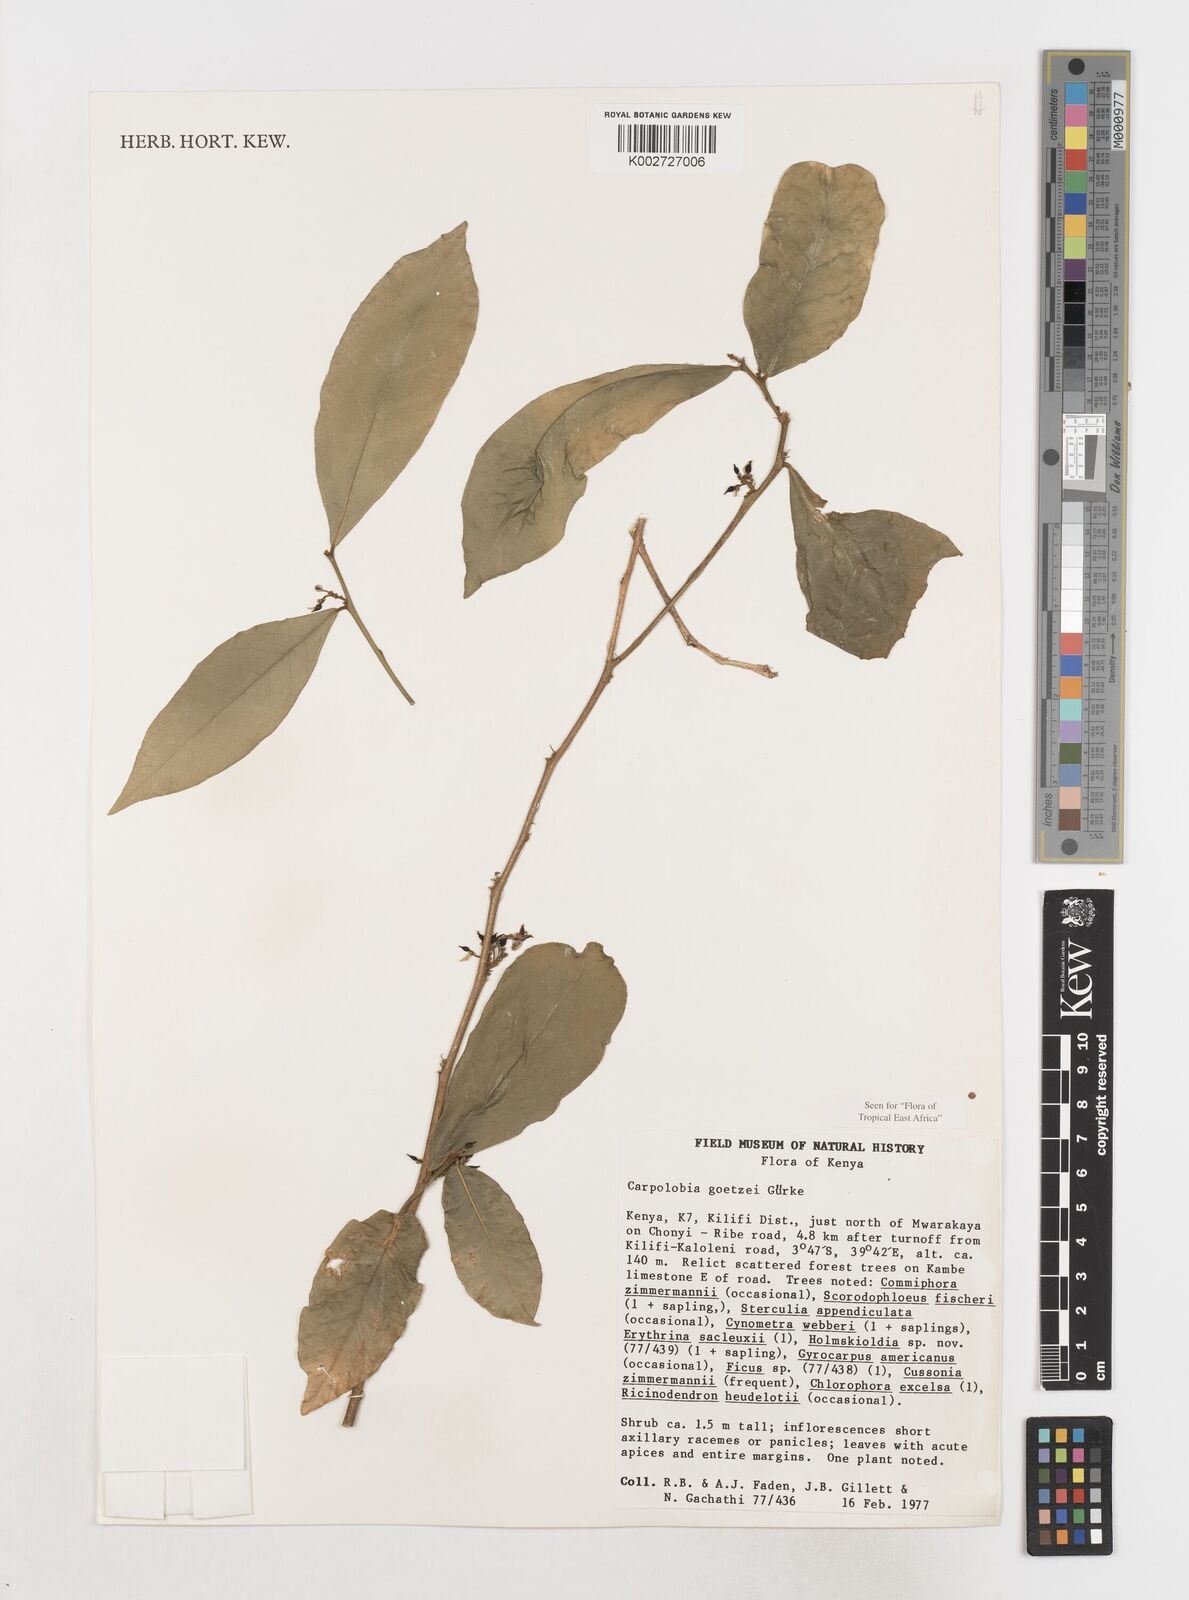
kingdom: Plantae
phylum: Tracheophyta
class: Magnoliopsida
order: Fabales
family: Polygalaceae
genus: Carpolobia
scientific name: Carpolobia goetzei
